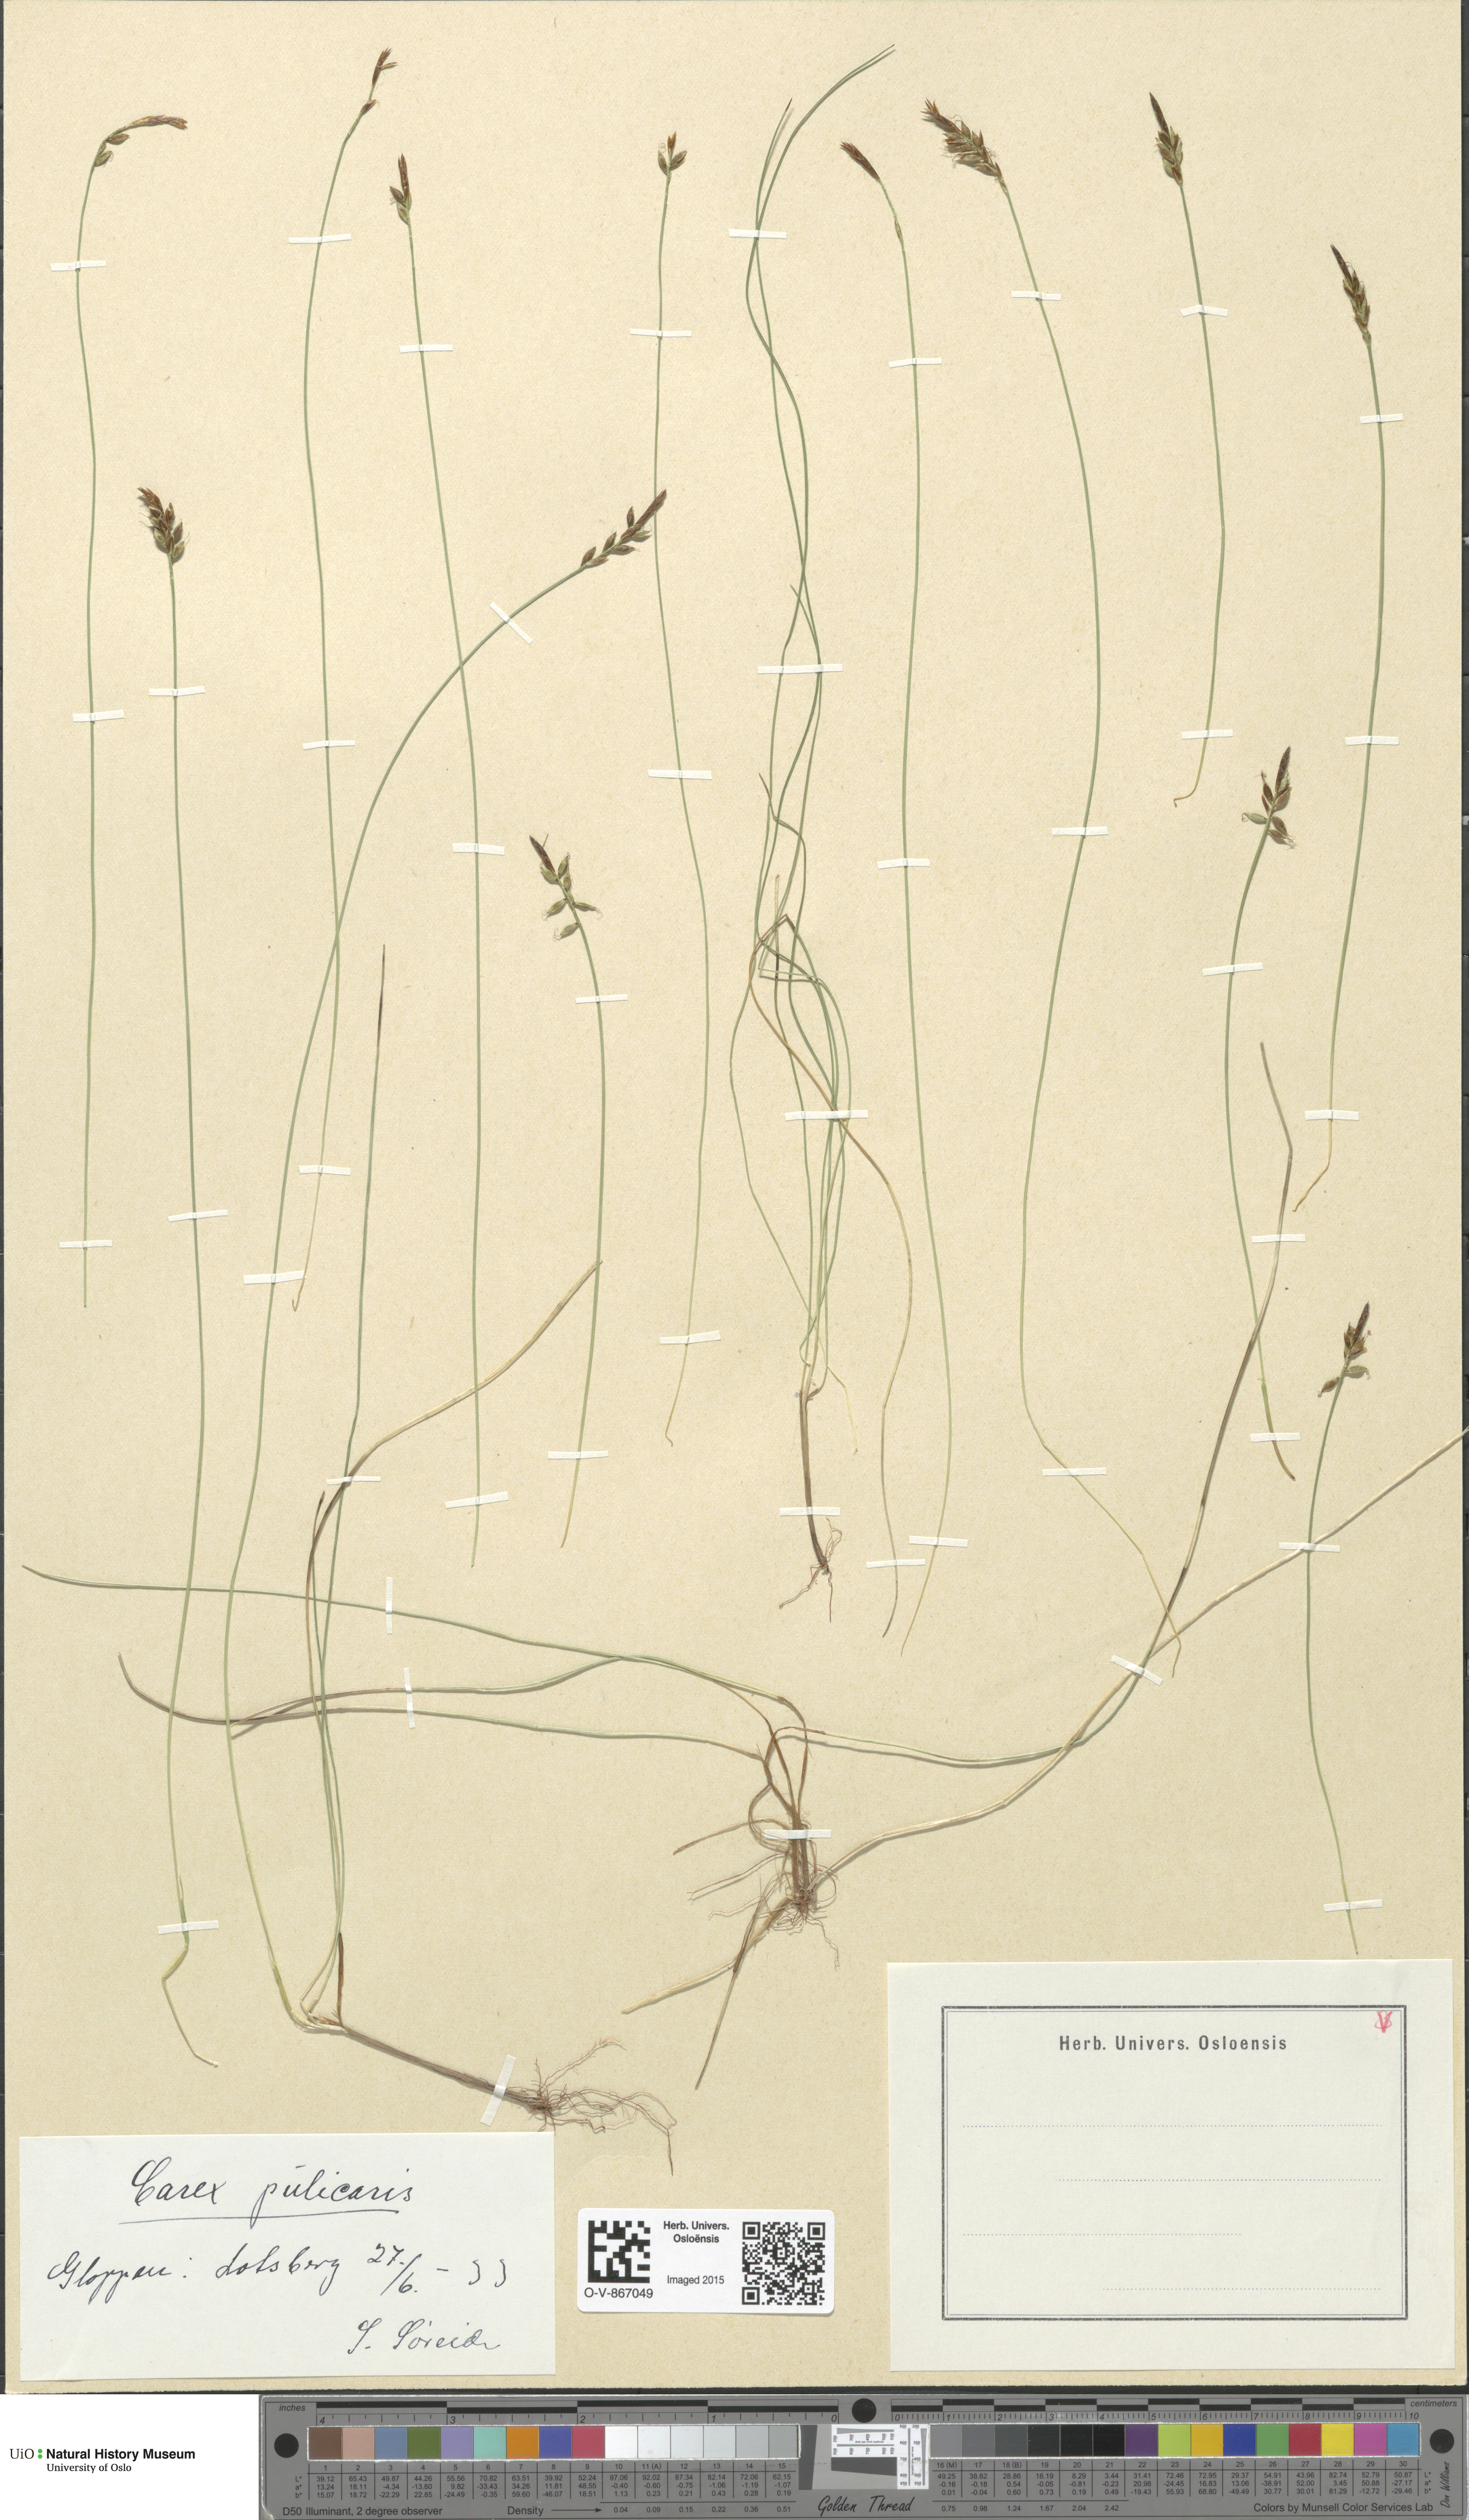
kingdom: Plantae
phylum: Tracheophyta
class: Liliopsida
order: Poales
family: Cyperaceae
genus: Carex
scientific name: Carex pulicaris
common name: Flea sedge
